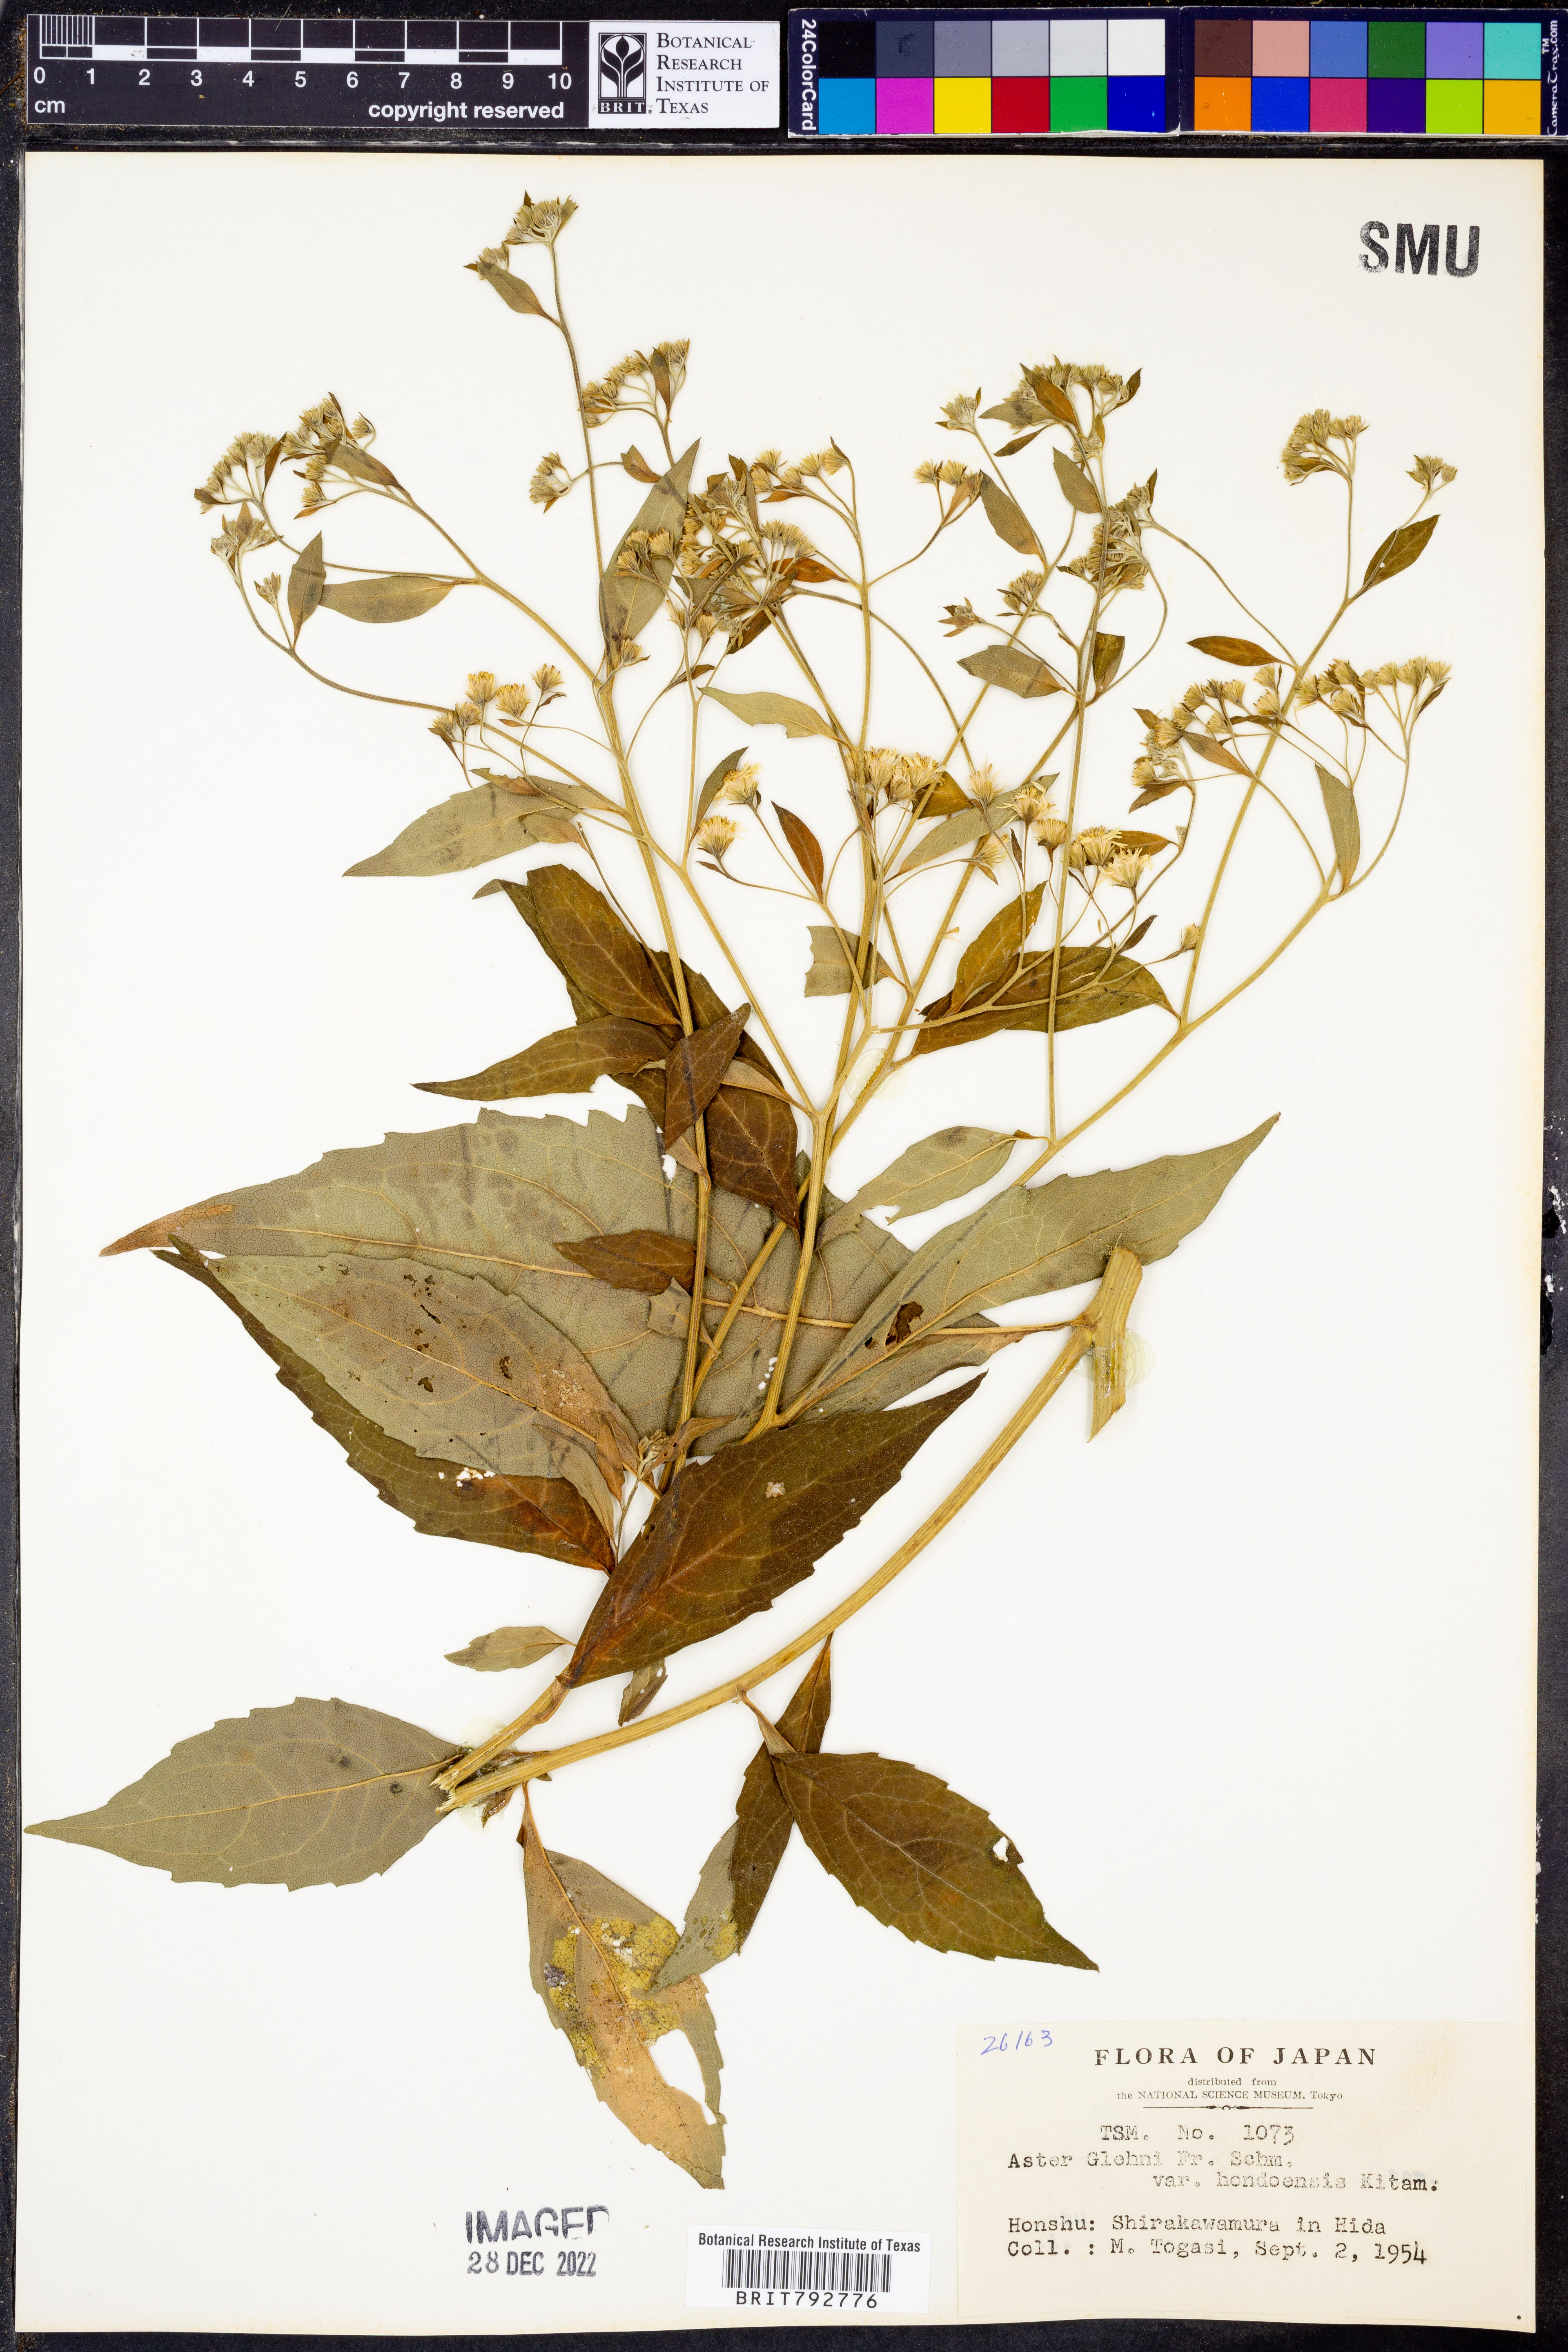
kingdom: Plantae
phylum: Tracheophyta
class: Magnoliopsida
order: Asterales
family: Asteraceae
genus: Kitamuria
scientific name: Kitamuria glehnii
